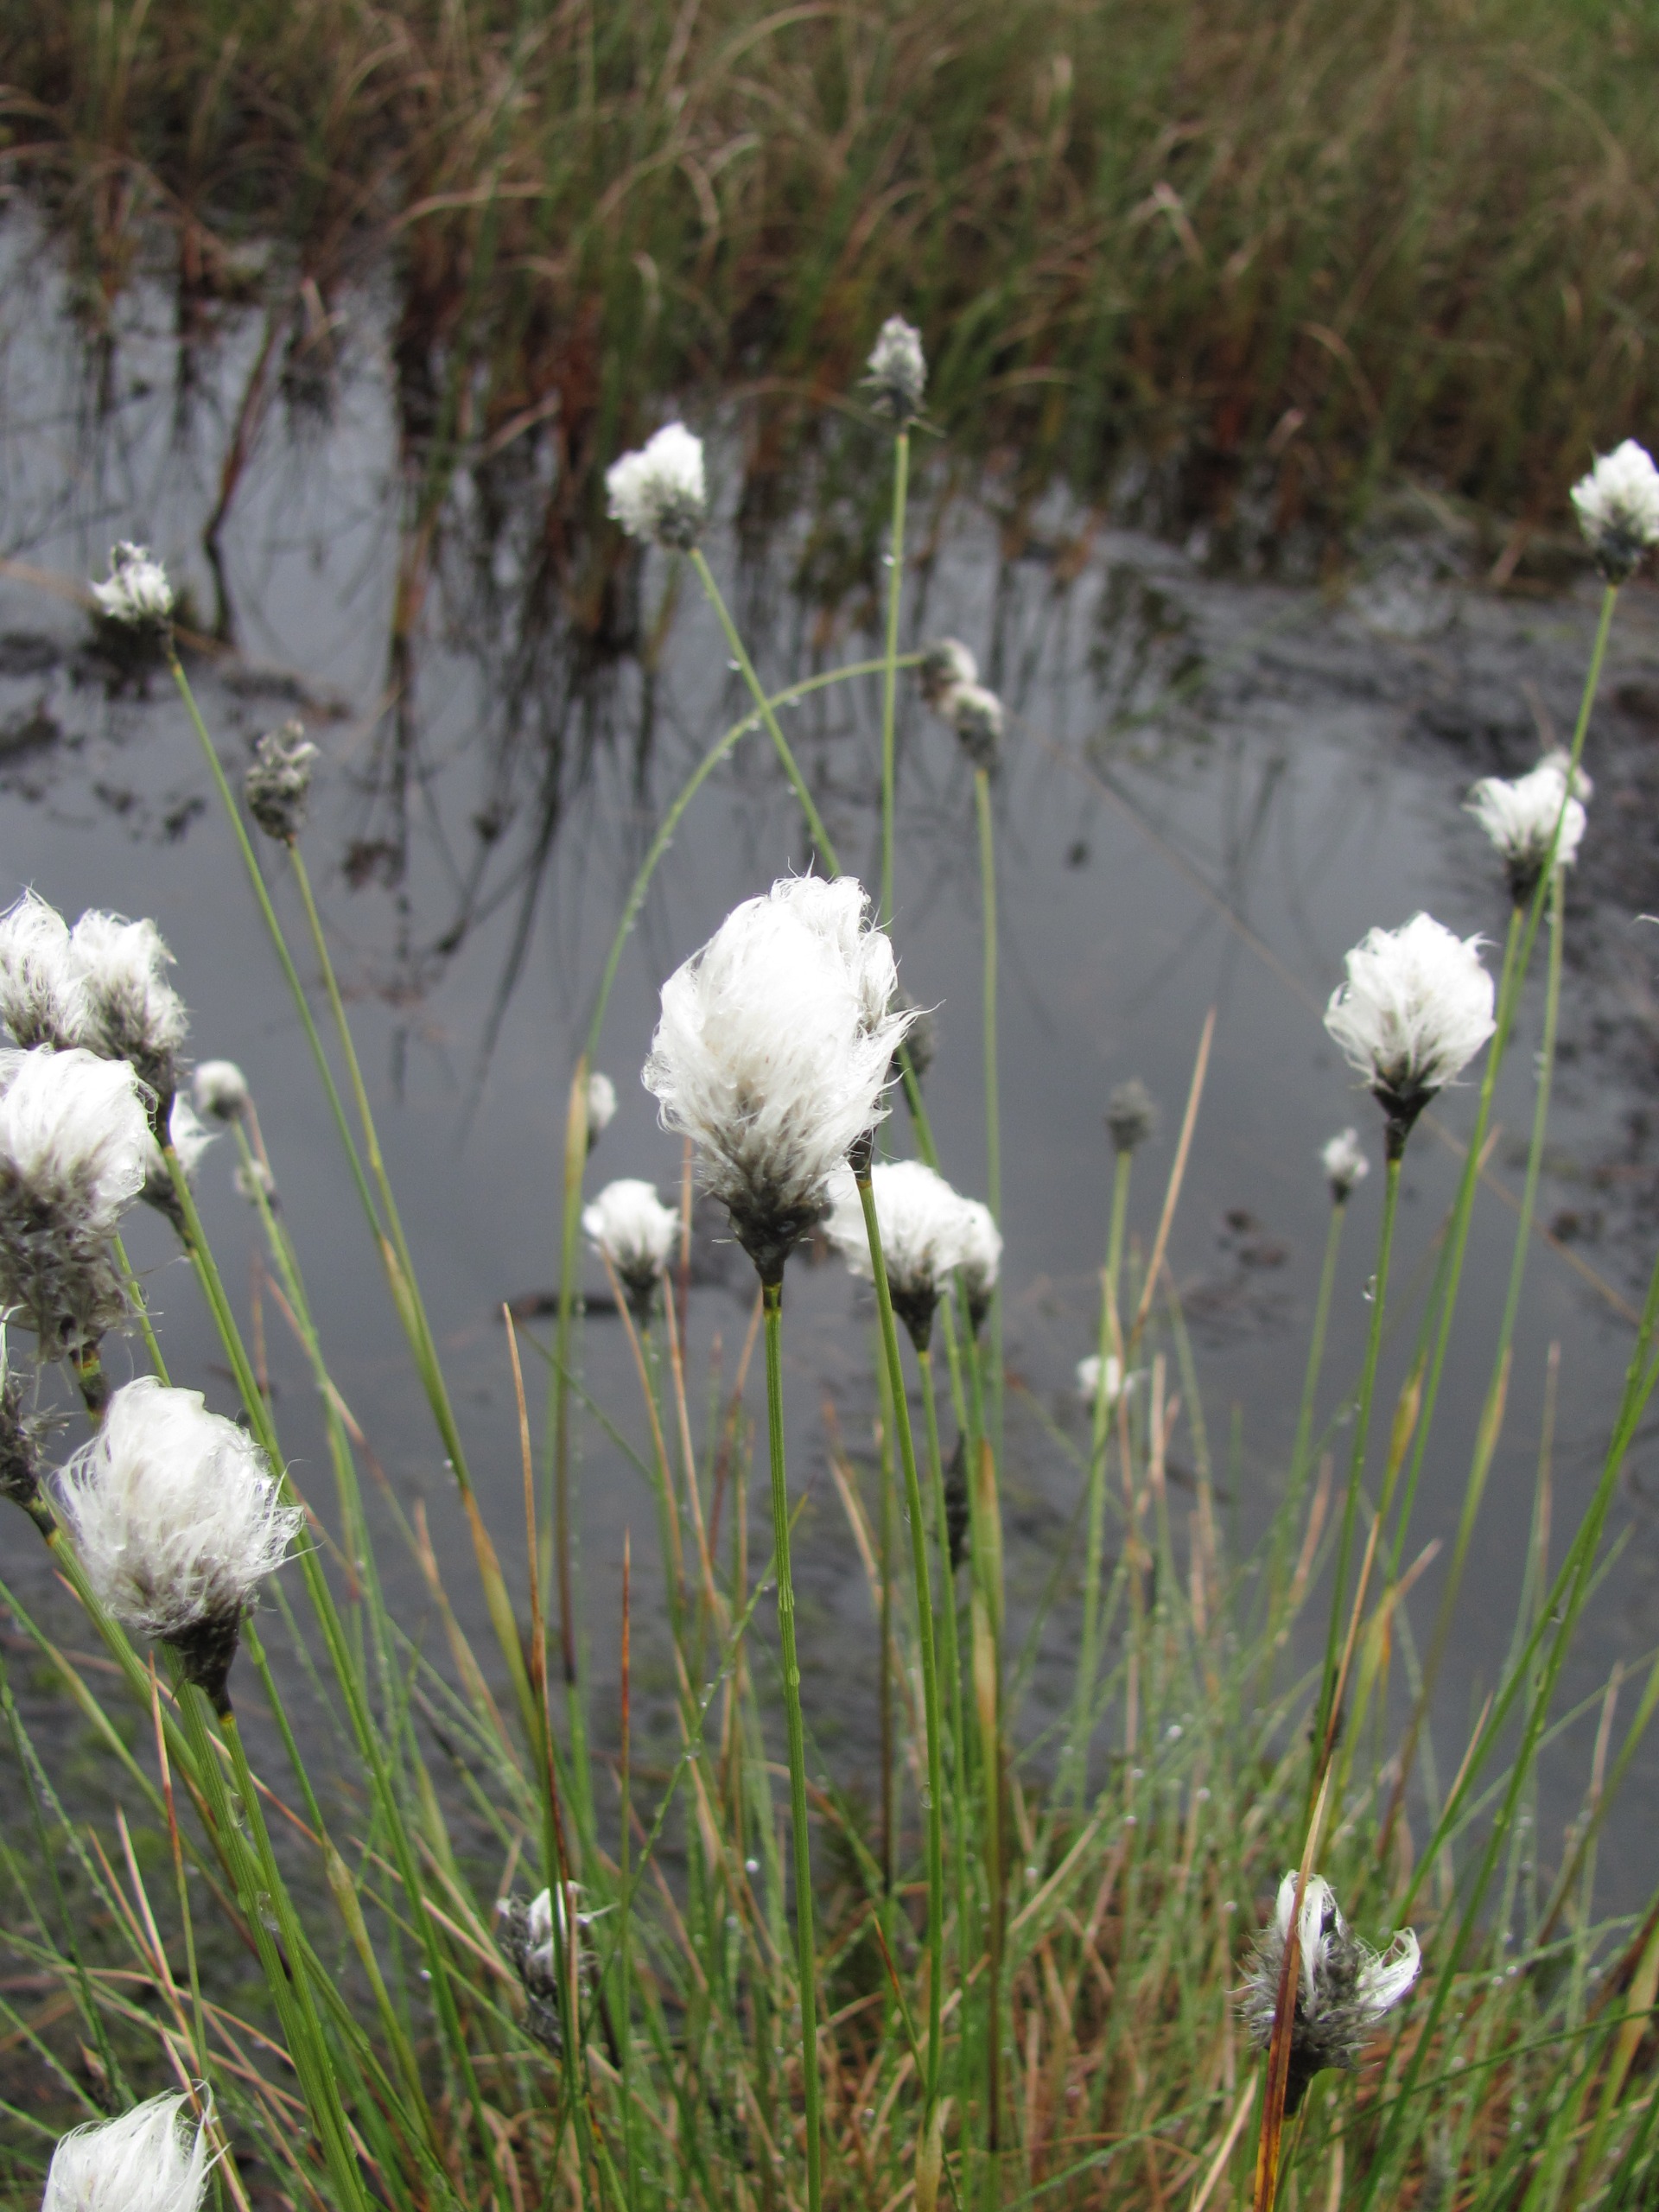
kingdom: Plantae
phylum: Tracheophyta
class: Liliopsida
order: Poales
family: Cyperaceae
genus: Eriophorum
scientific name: Eriophorum vaginatum
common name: Tue-kæruld
